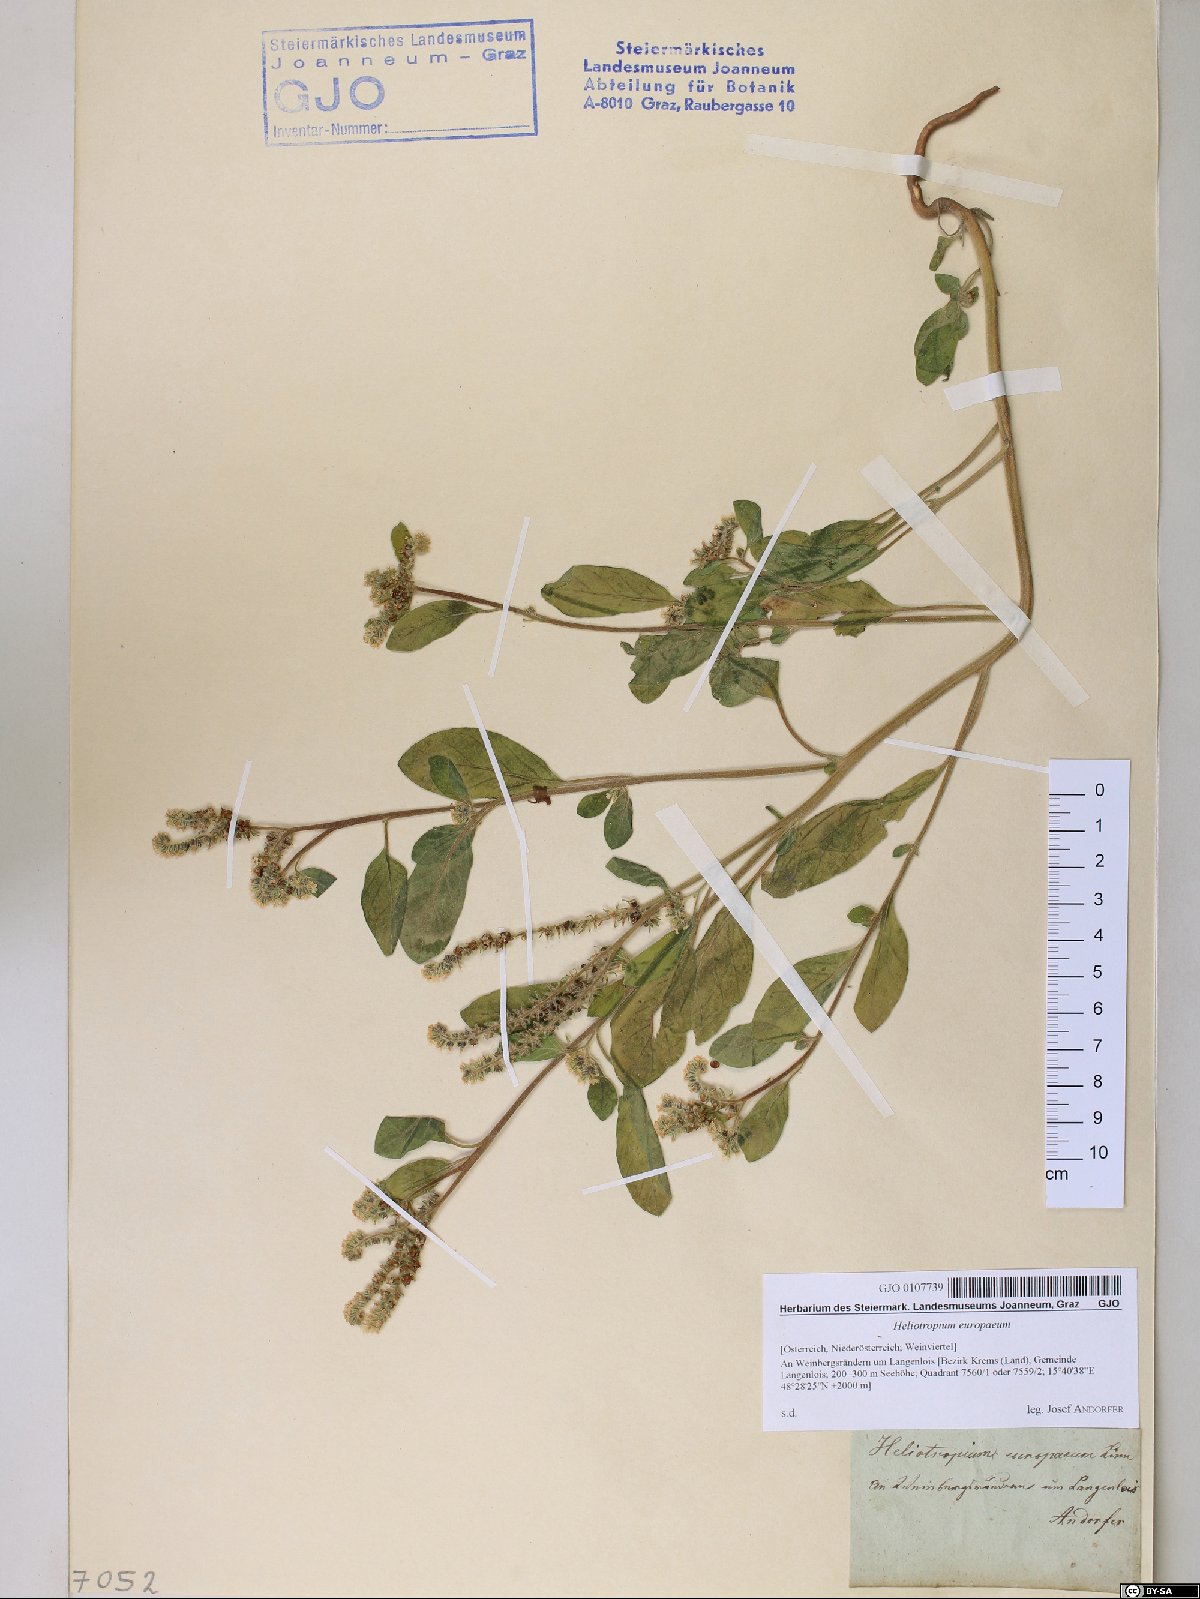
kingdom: Plantae
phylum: Tracheophyta
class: Magnoliopsida
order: Boraginales
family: Heliotropiaceae
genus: Heliotropium
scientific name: Heliotropium europaeum
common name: European heliotrope
